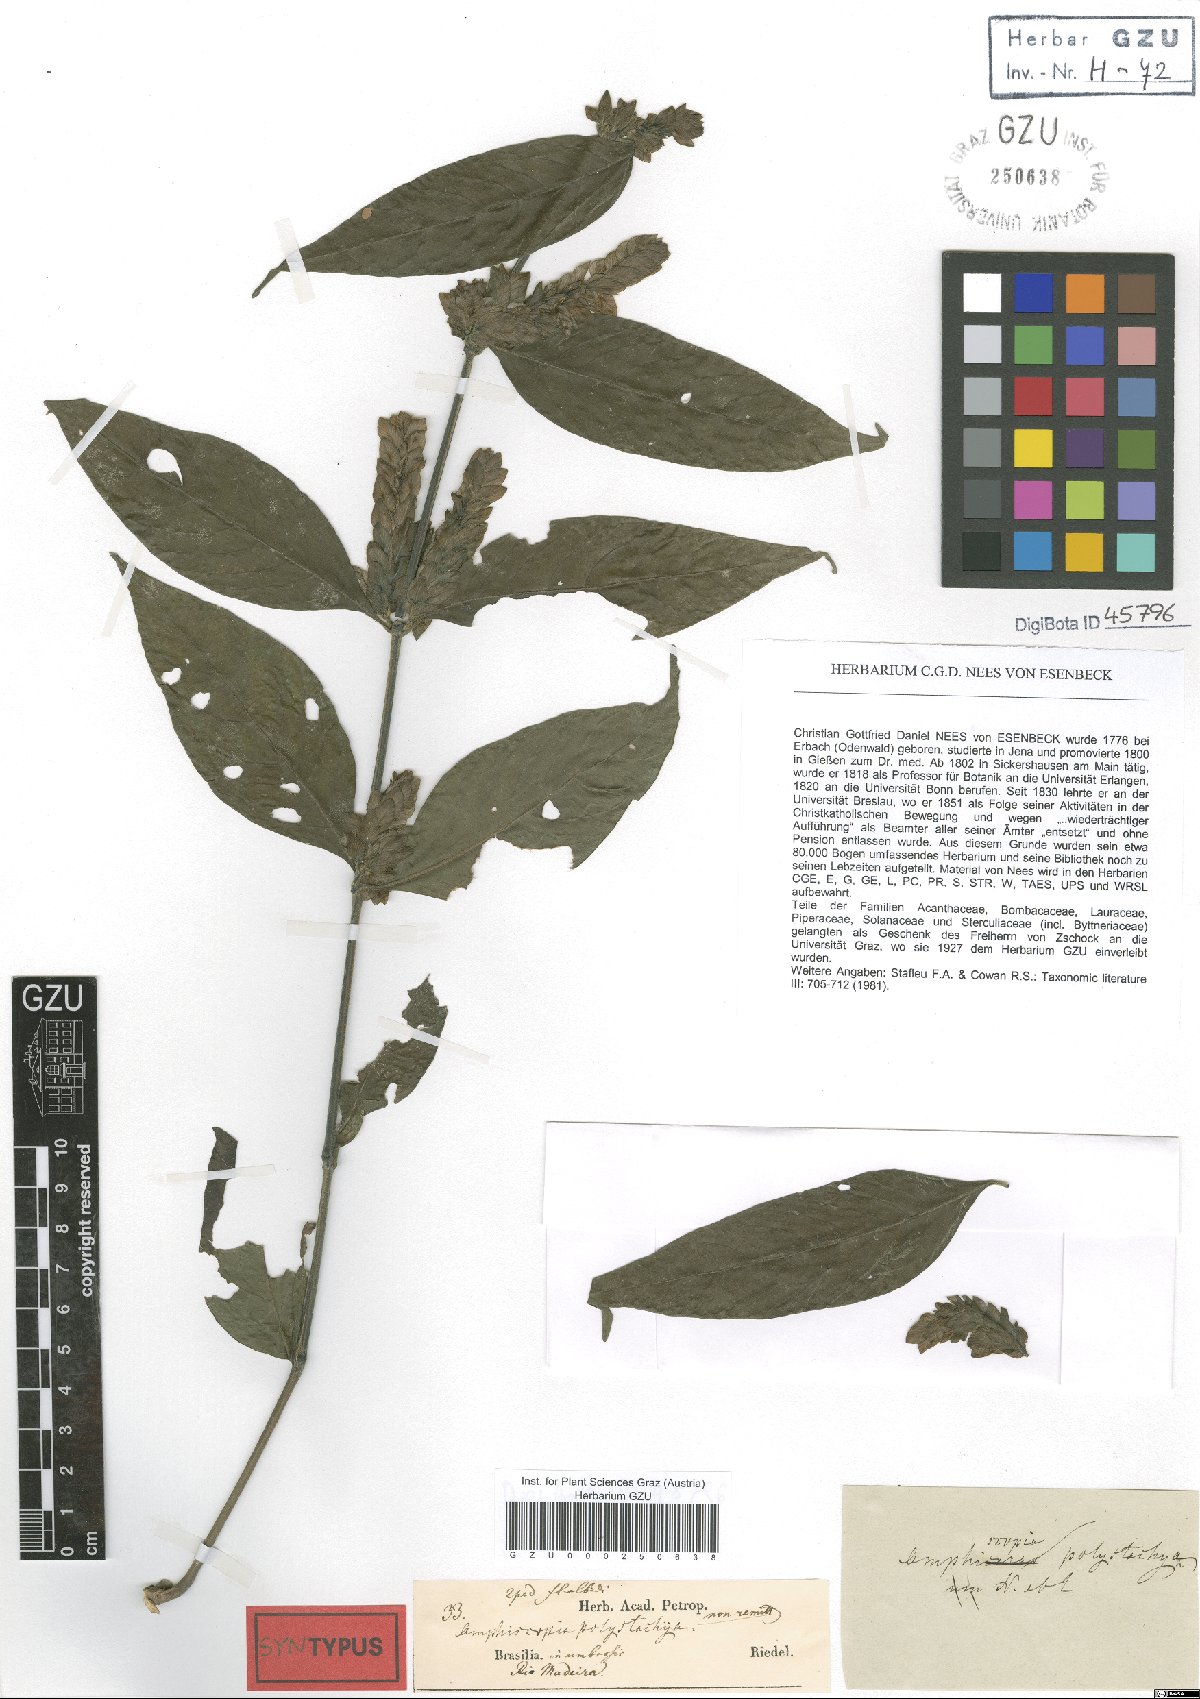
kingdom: Plantae
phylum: Tracheophyta
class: Magnoliopsida
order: Lamiales
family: Acanthaceae
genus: Justicia
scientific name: Justicia polystachya
